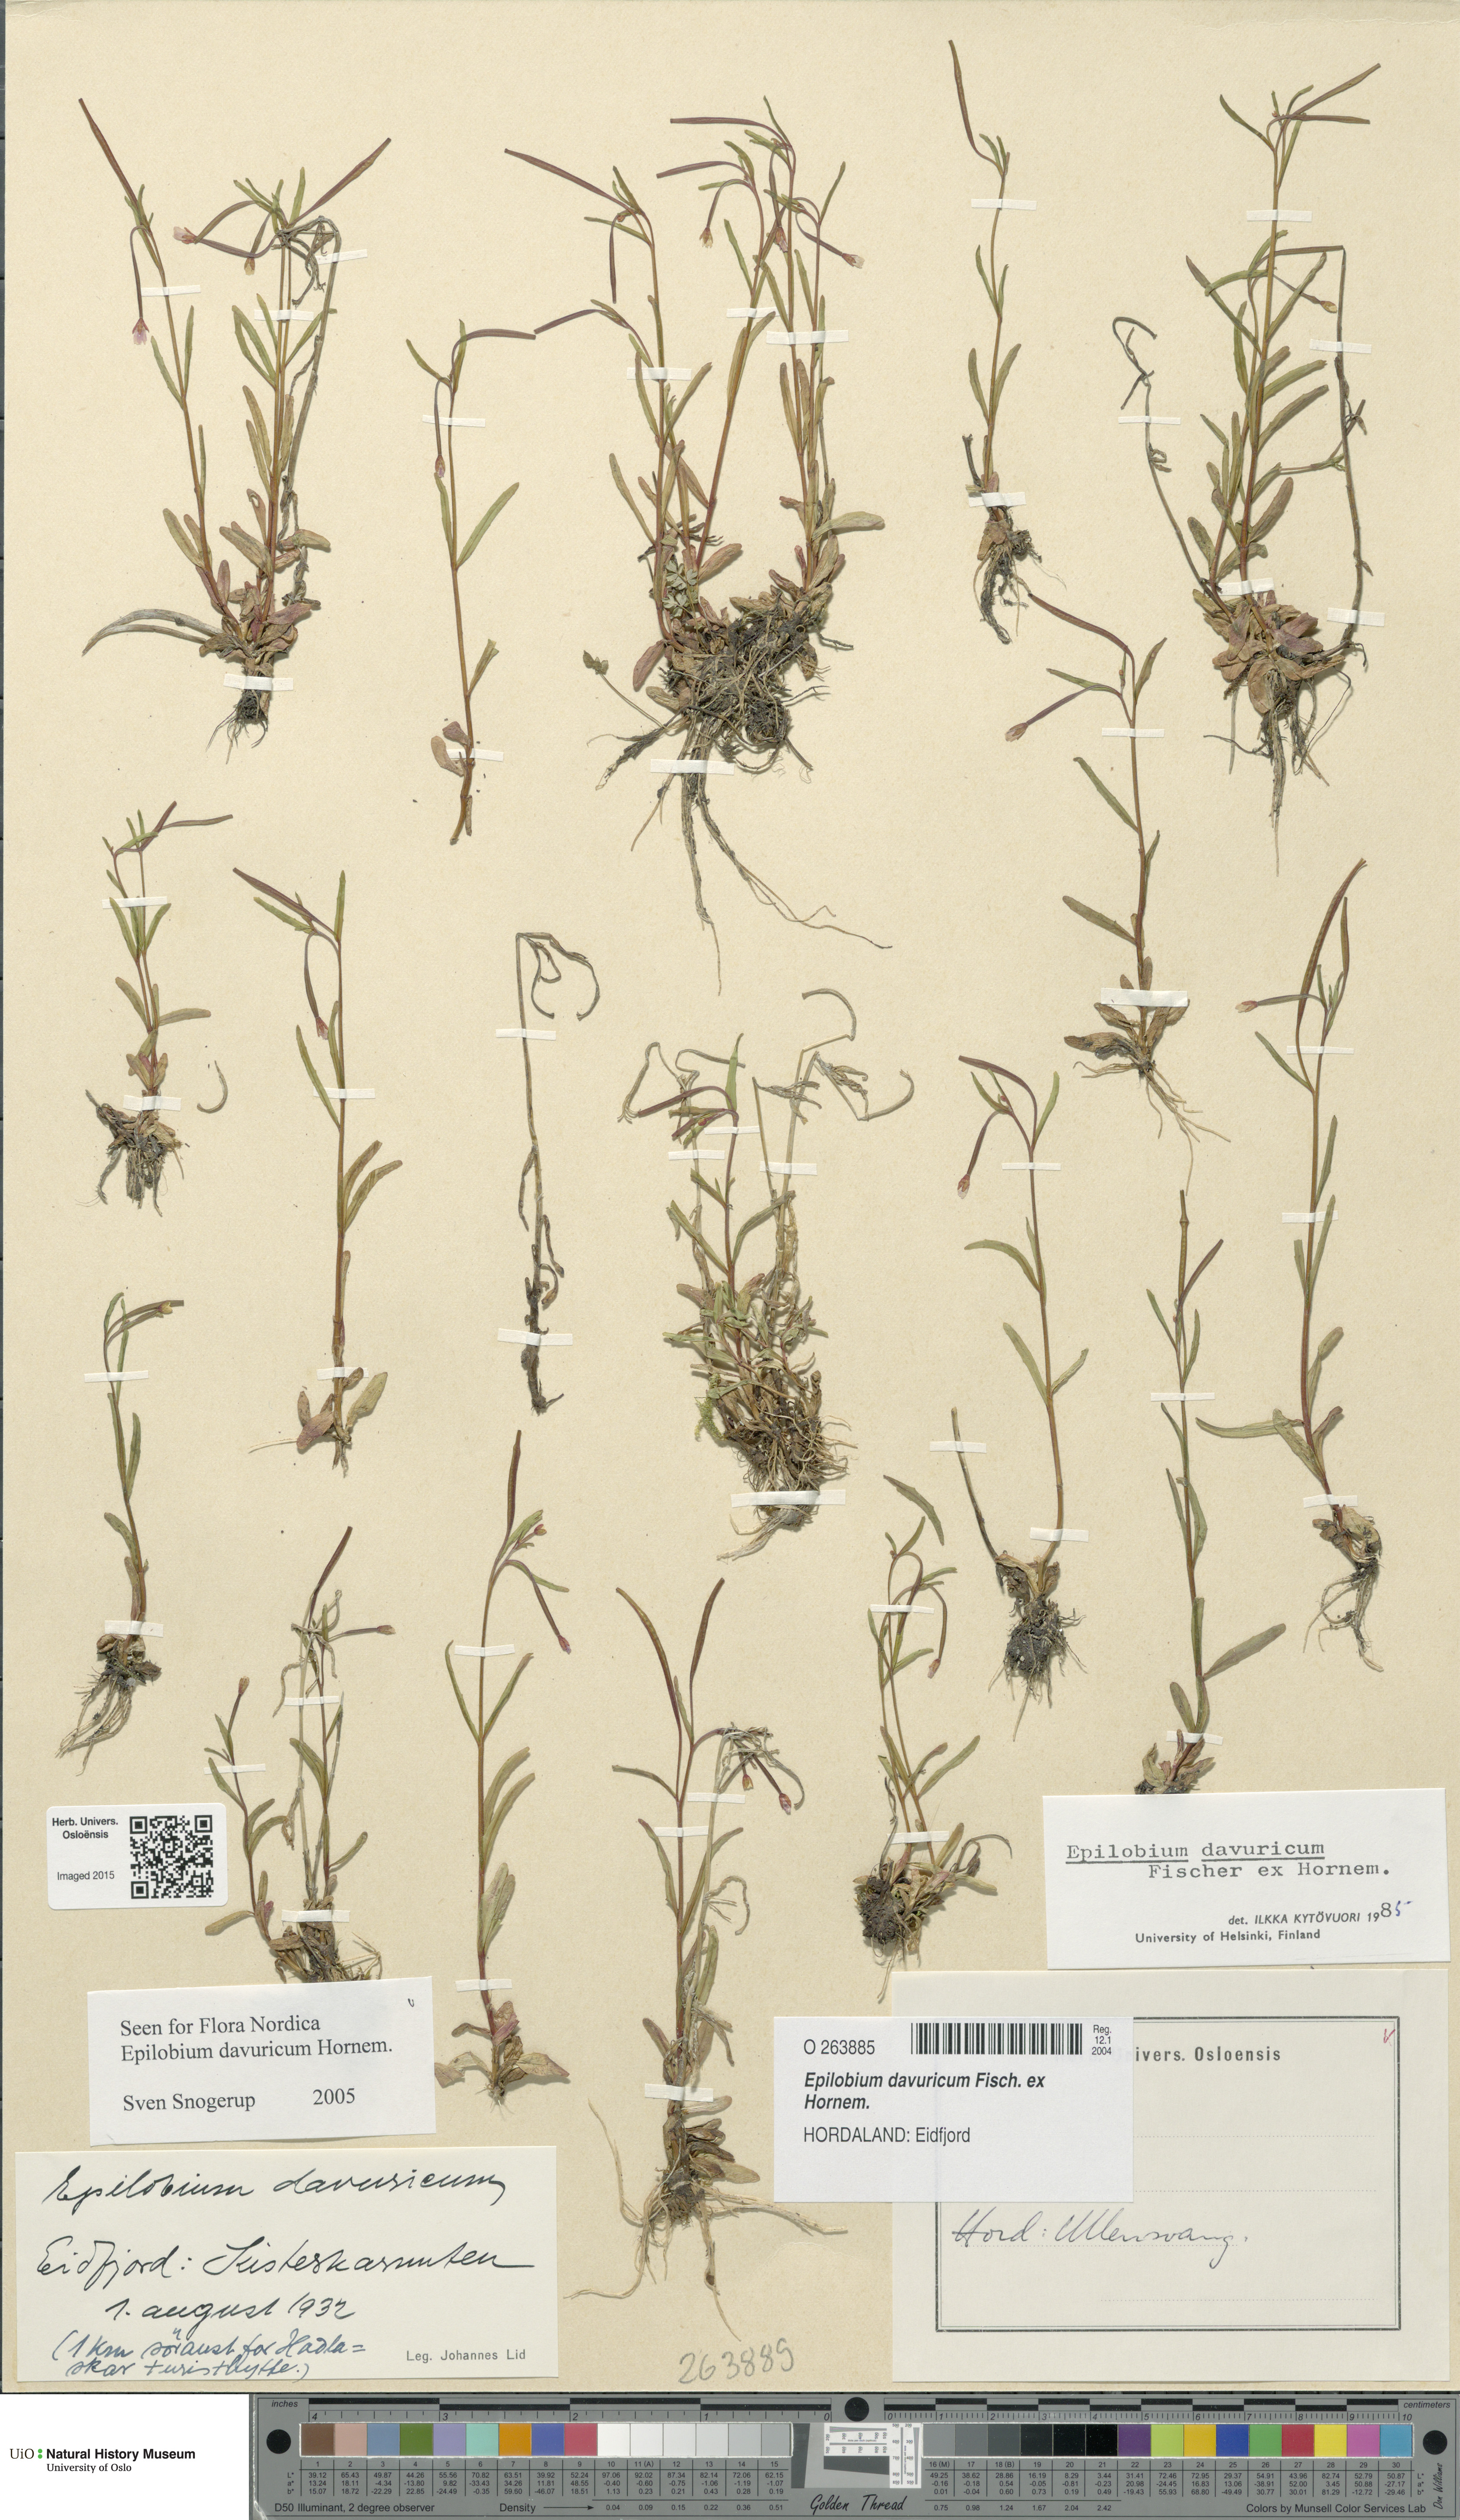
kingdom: Plantae
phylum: Tracheophyta
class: Magnoliopsida
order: Myrtales
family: Onagraceae
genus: Epilobium
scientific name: Epilobium davuricum
